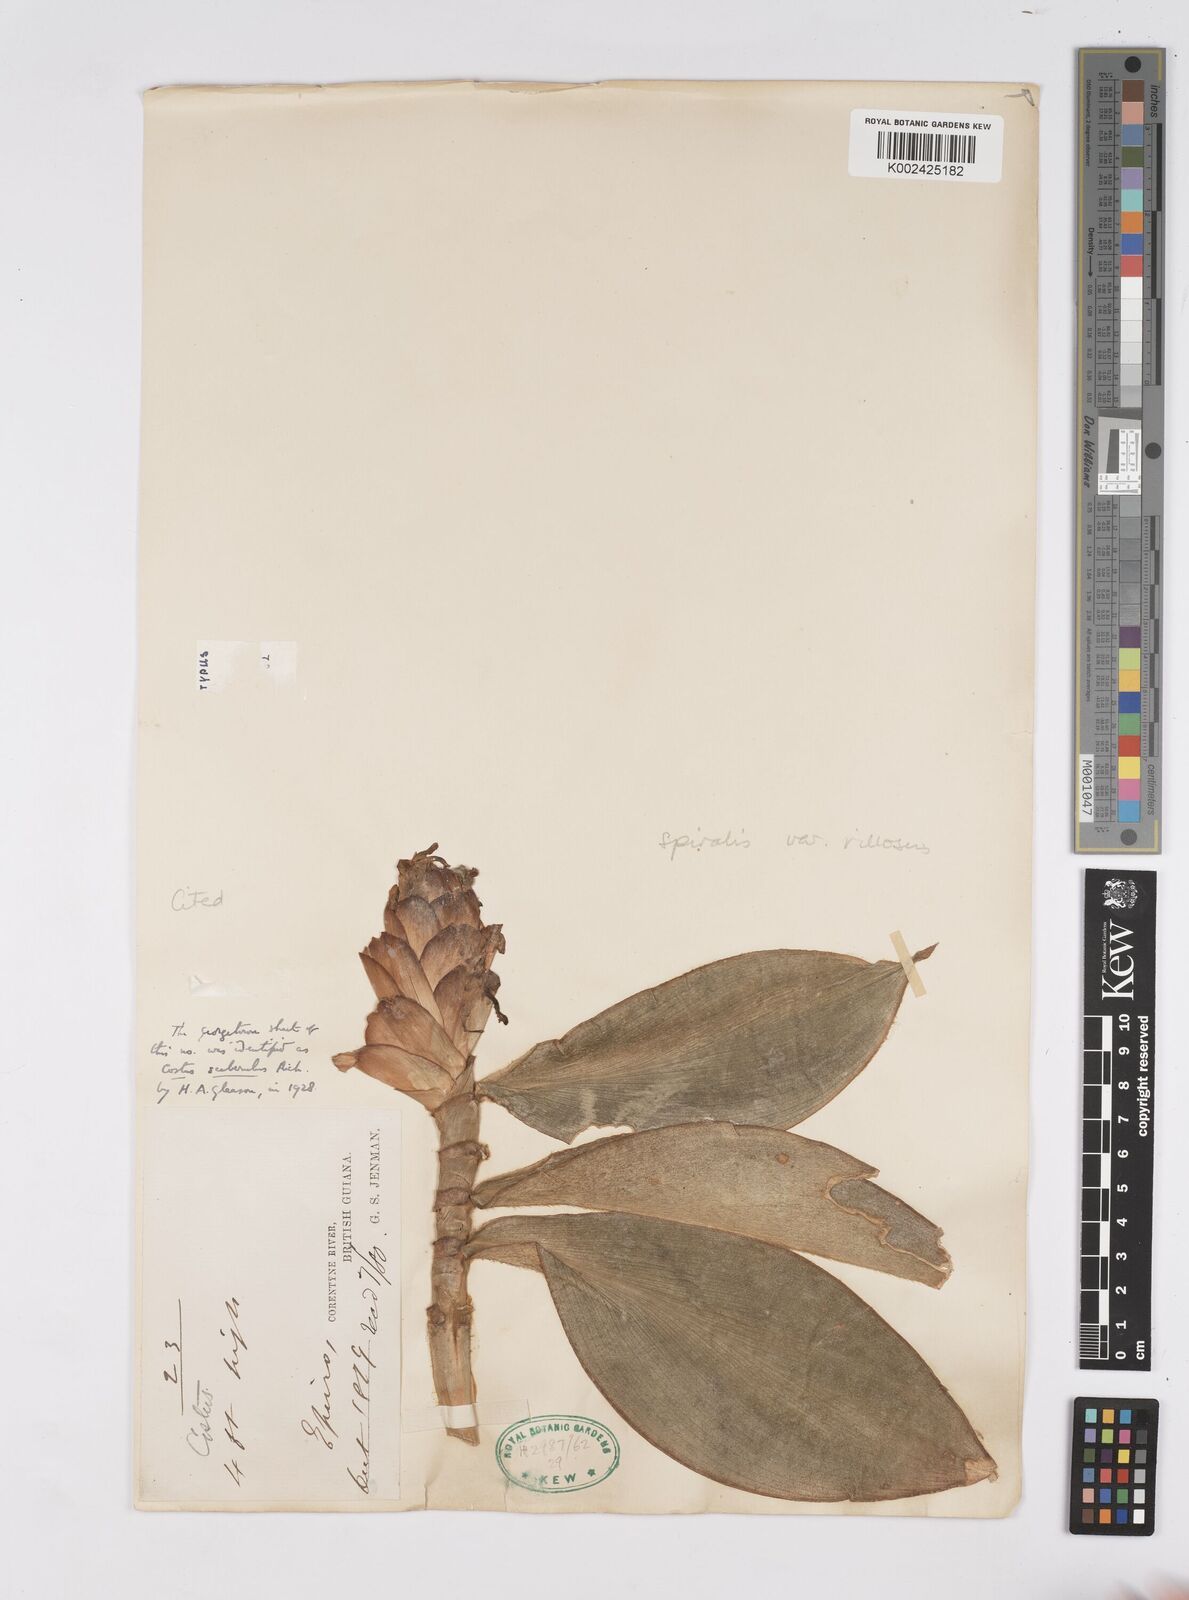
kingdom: Plantae
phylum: Tracheophyta
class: Liliopsida
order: Zingiberales
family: Costaceae
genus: Costus
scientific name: Costus spiralis
